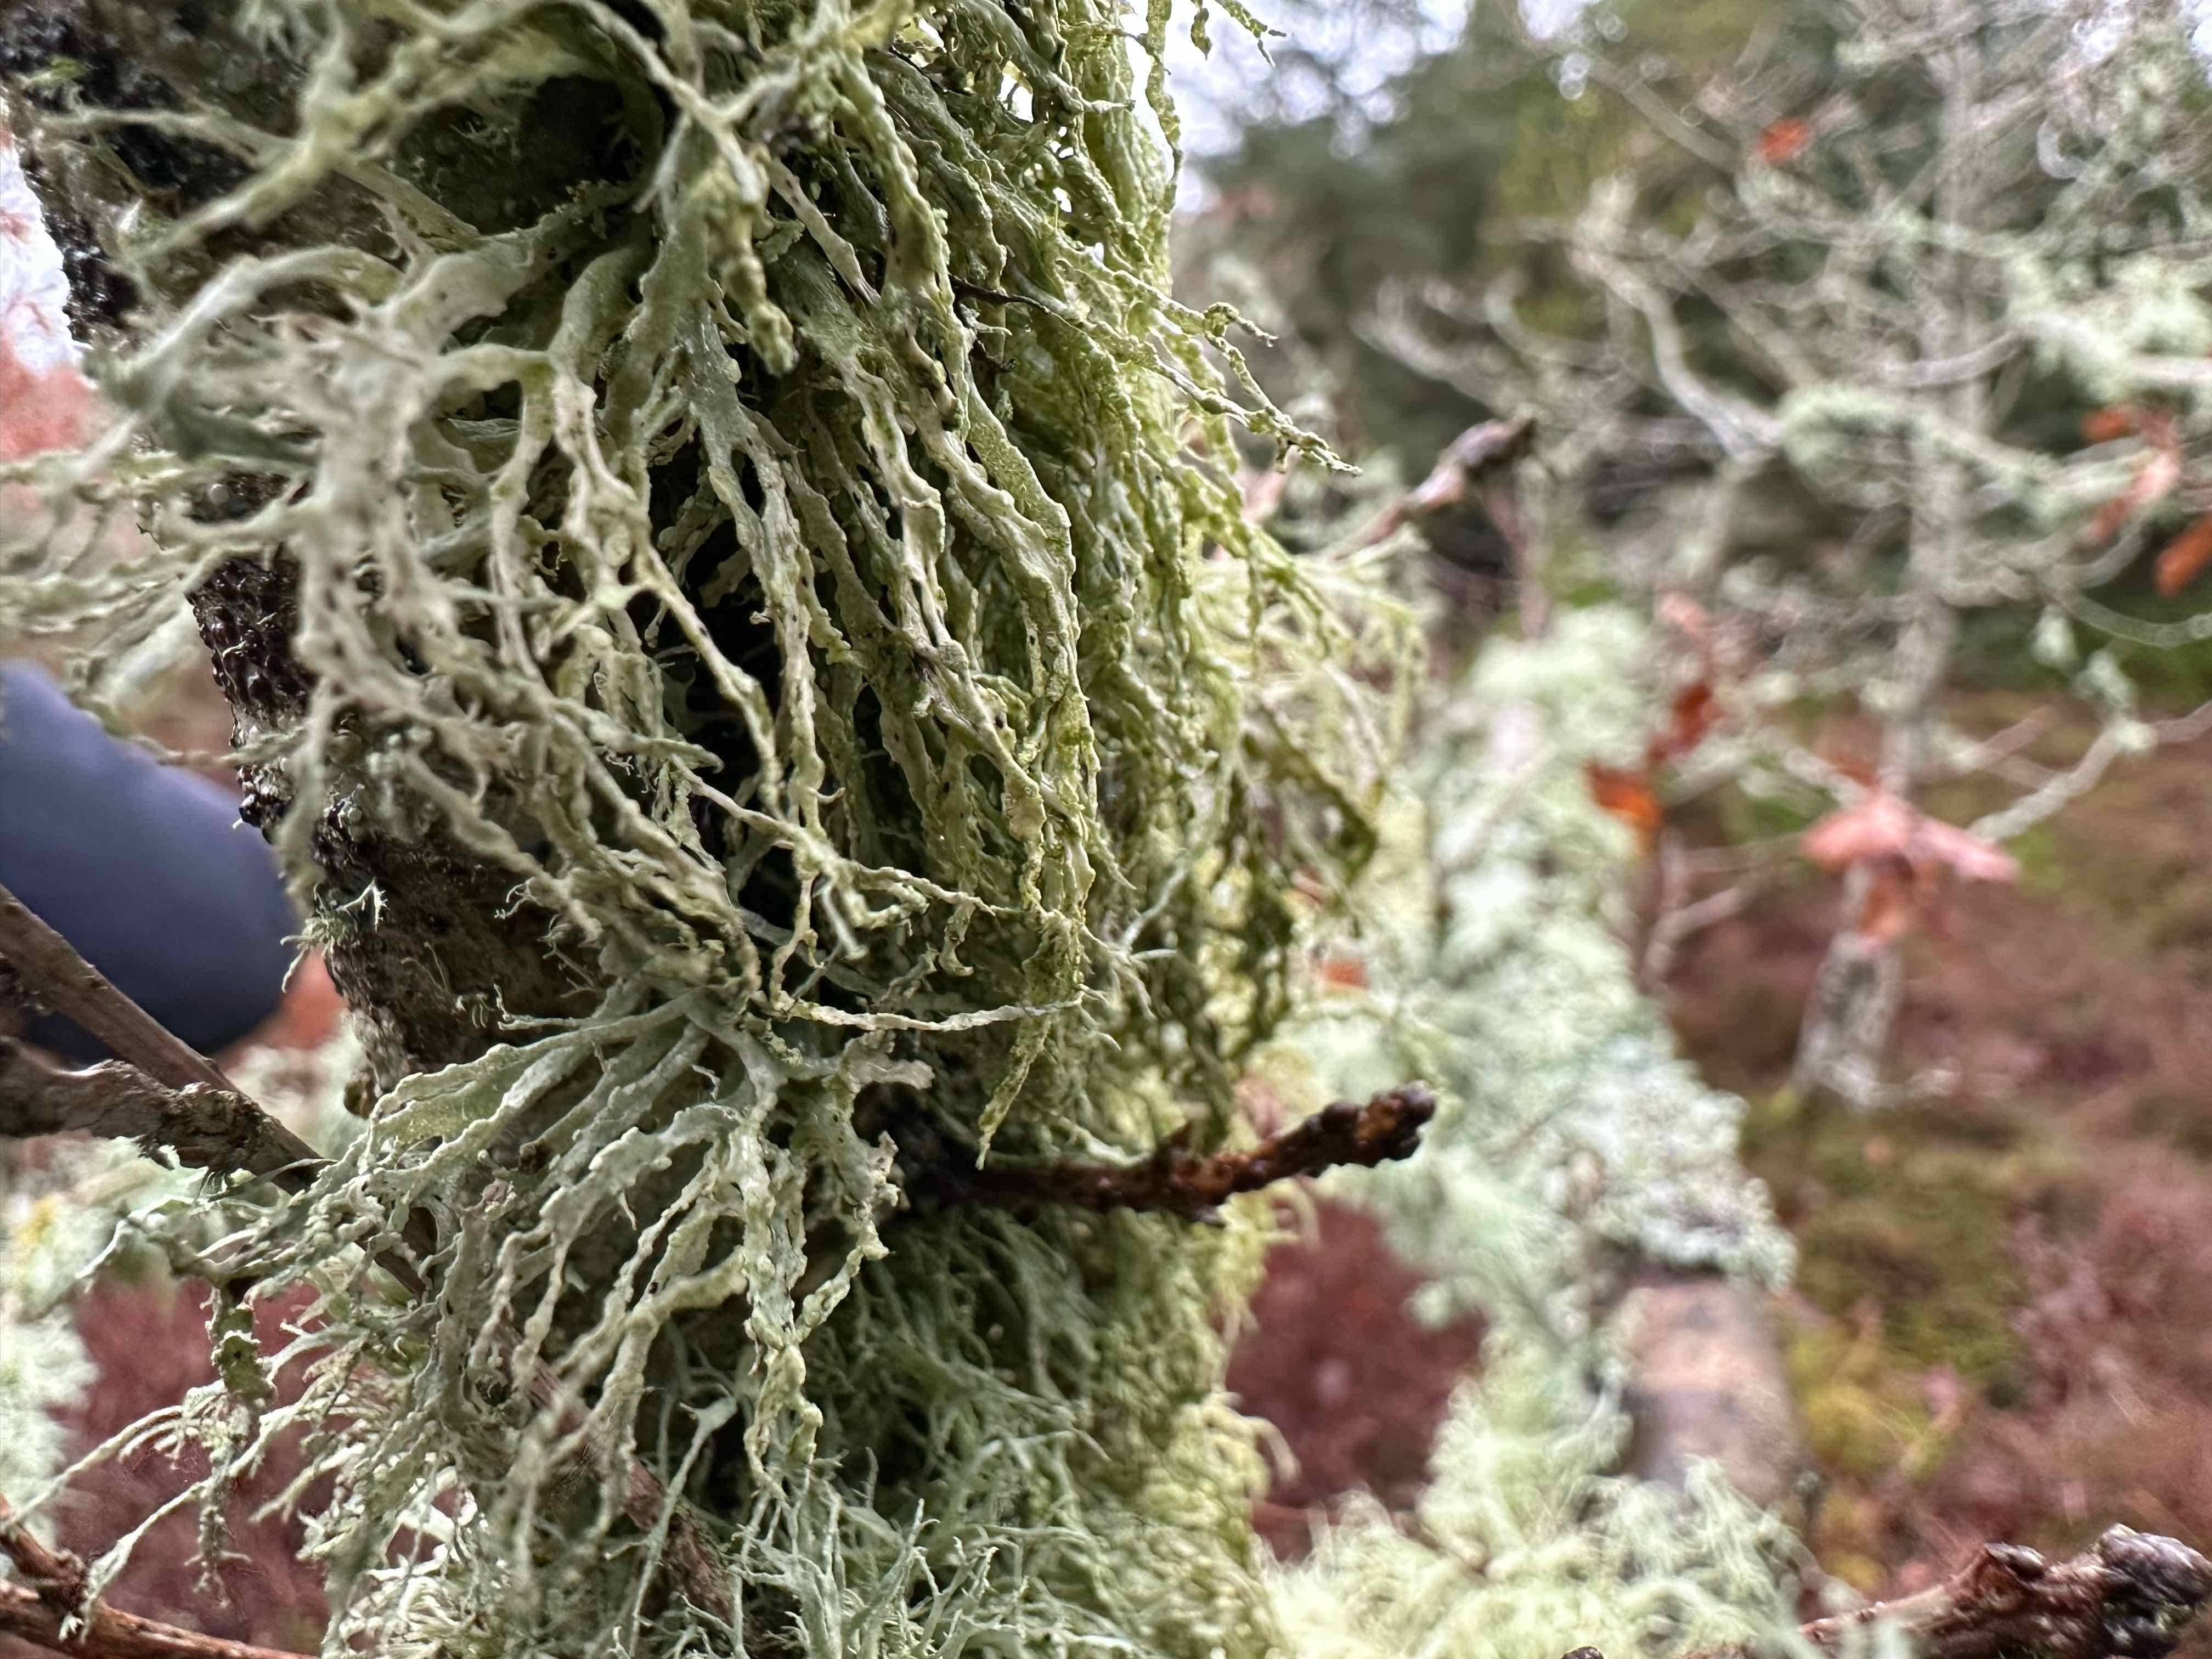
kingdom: Fungi
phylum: Ascomycota
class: Lecanoromycetes
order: Lecanorales
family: Ramalinaceae
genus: Ramalina
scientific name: Ramalina farinacea
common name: melet grenlav
